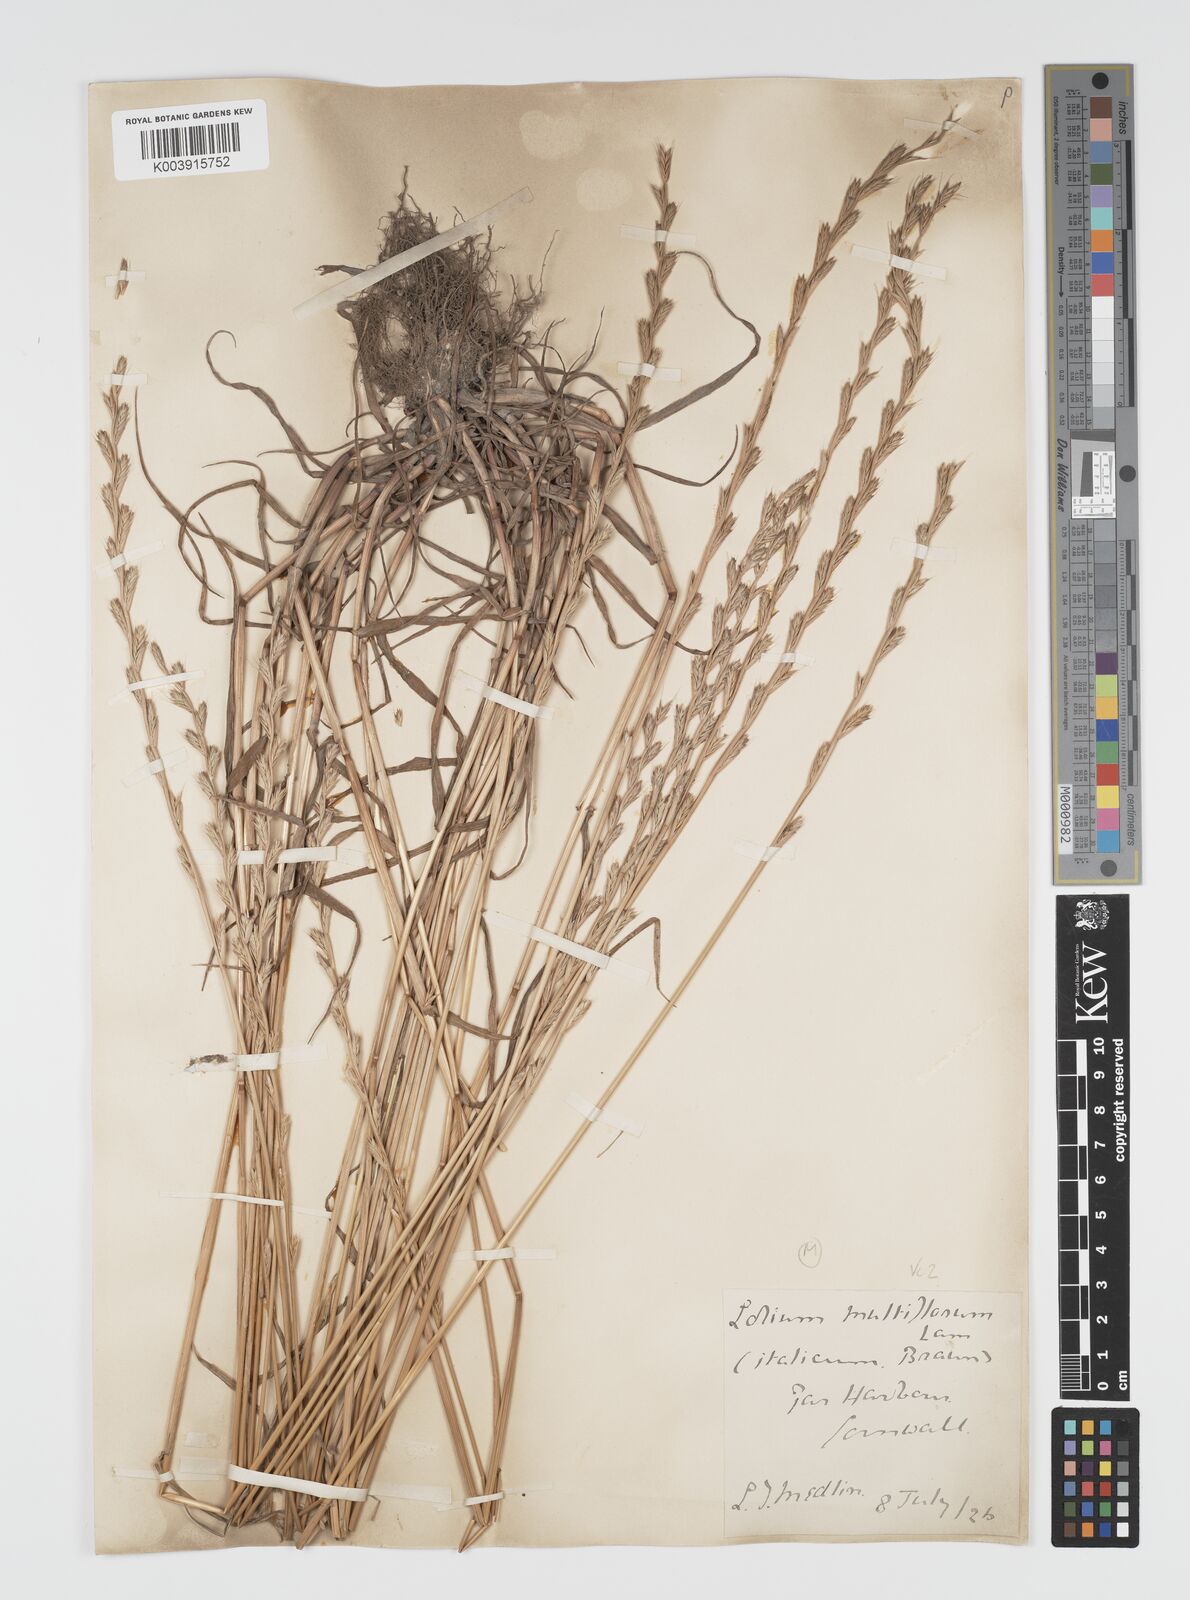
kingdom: Plantae
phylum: Tracheophyta
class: Liliopsida
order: Poales
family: Poaceae
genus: Lolium
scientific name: Lolium multiflorum
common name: Annual ryegrass
